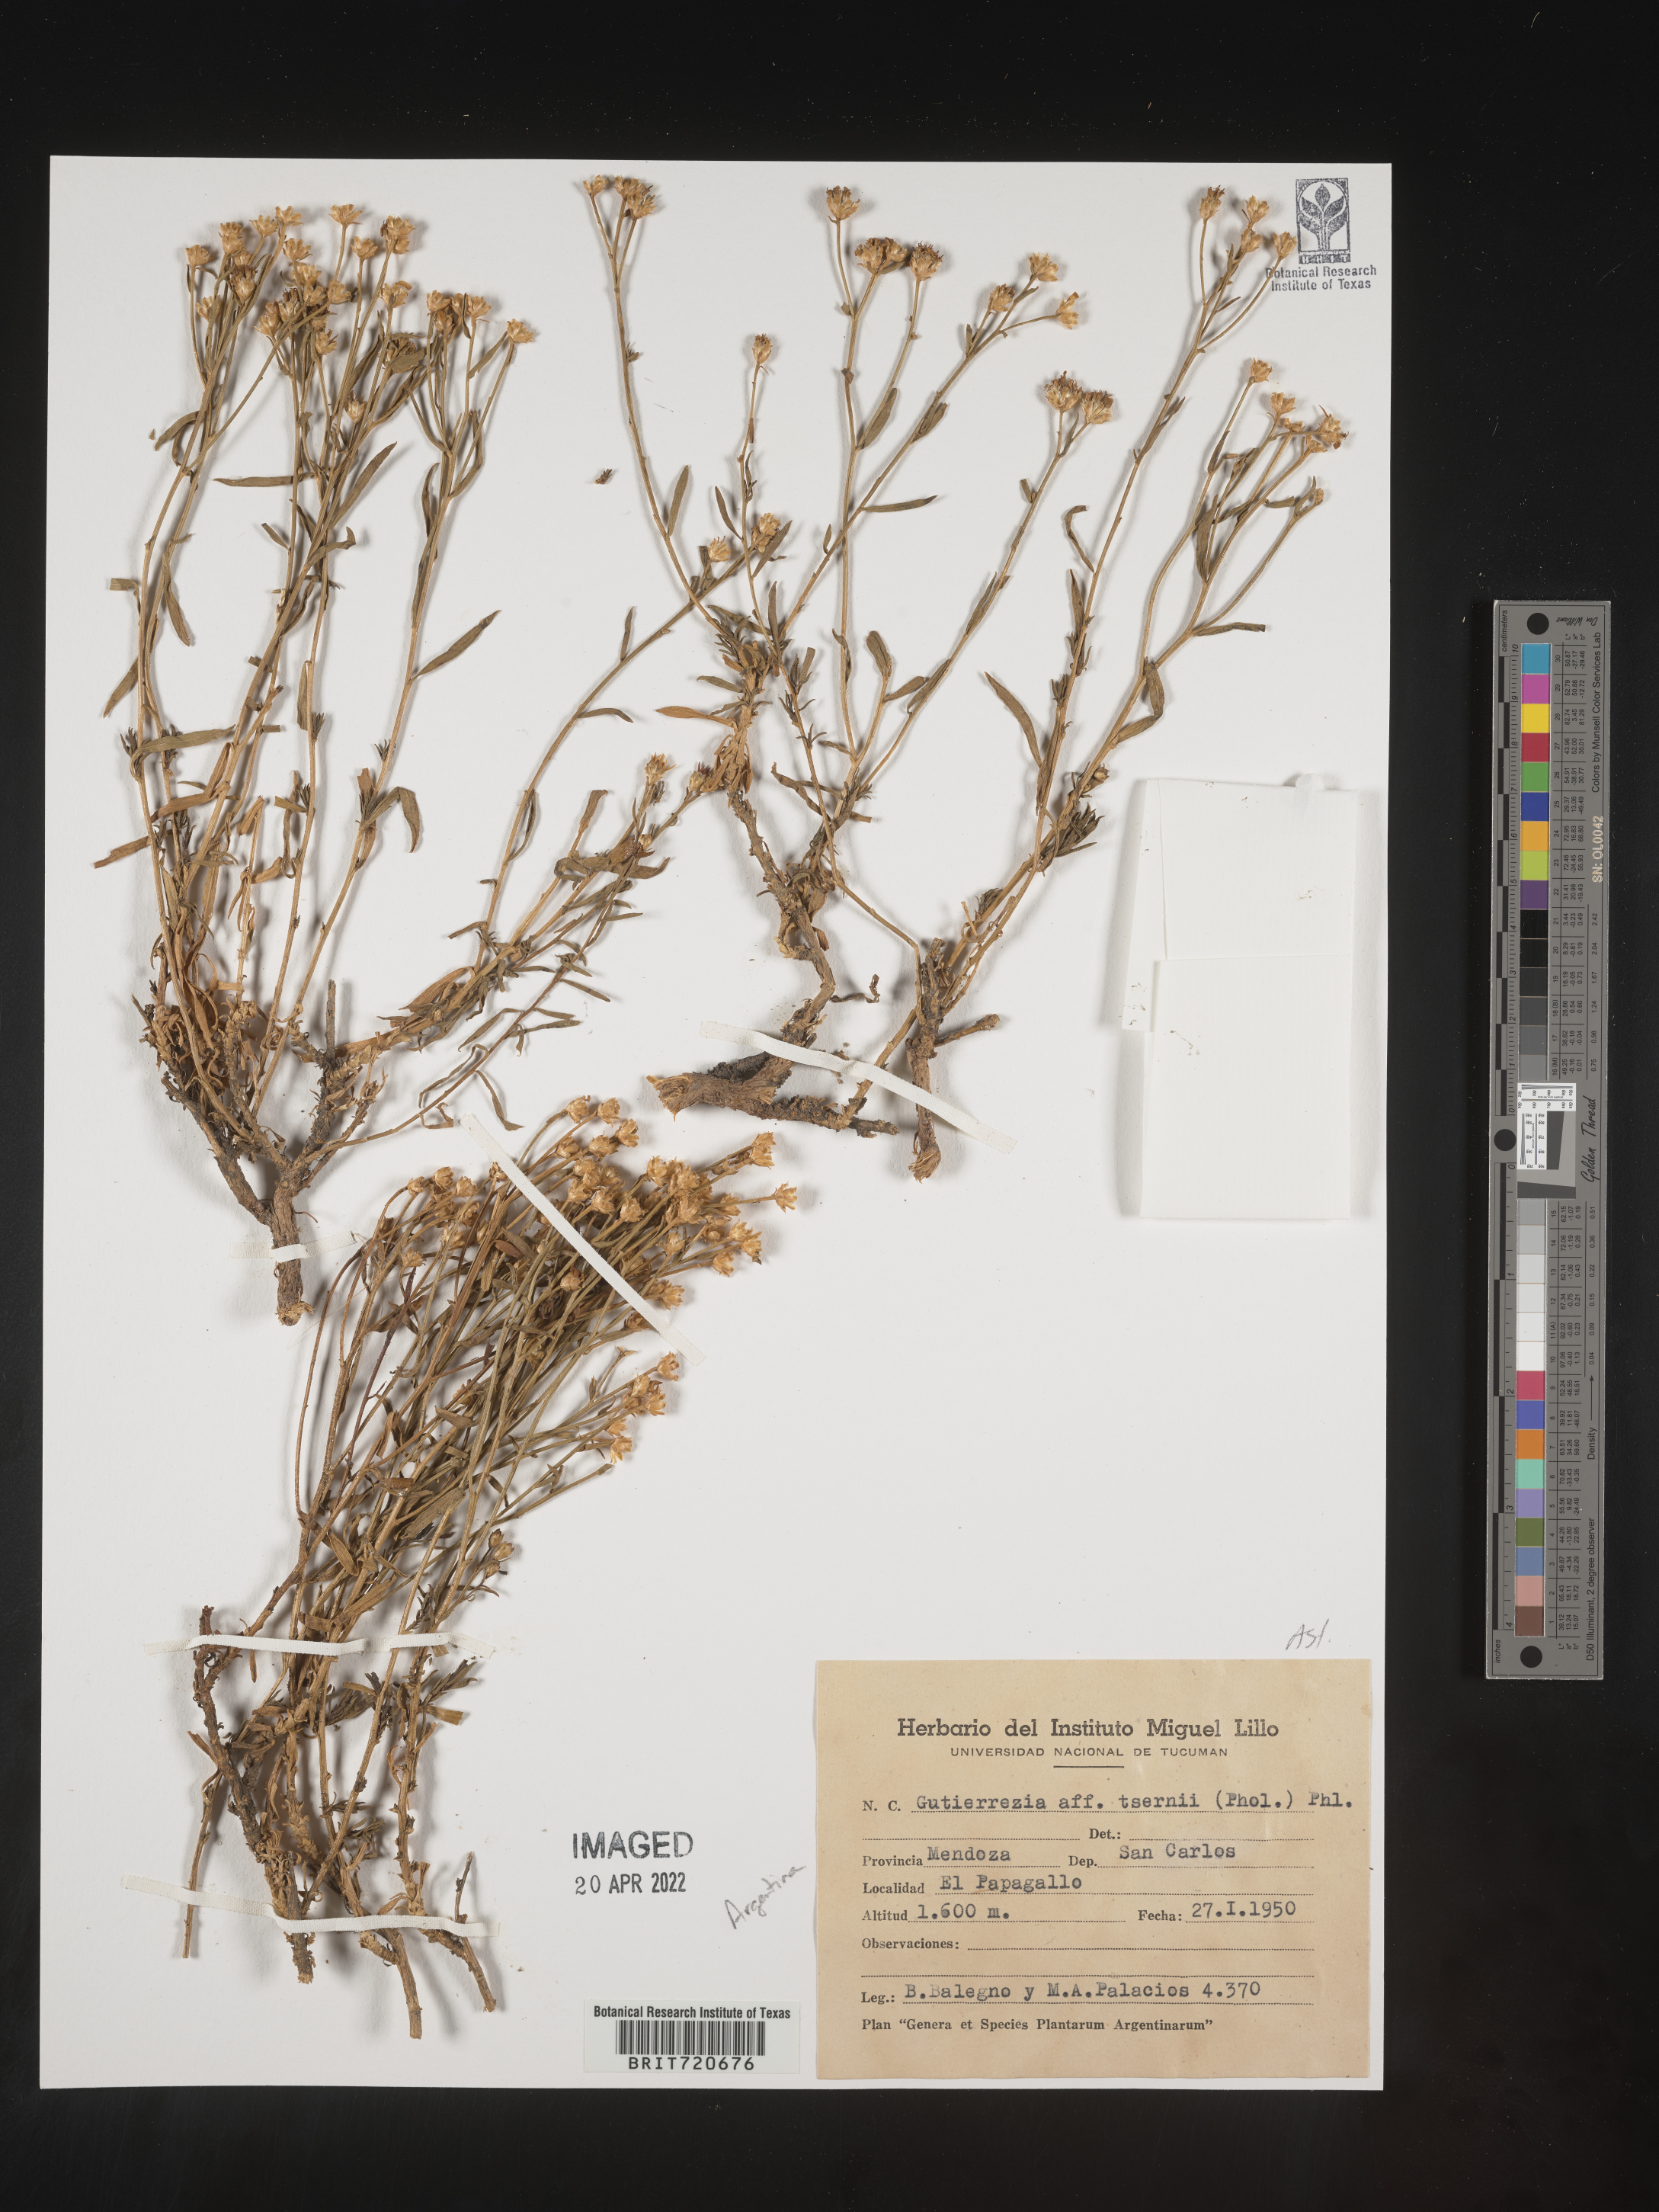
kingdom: Plantae
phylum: Tracheophyta
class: Magnoliopsida
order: Asterales
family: Asteraceae
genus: Gutierrezia
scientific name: Gutierrezia
